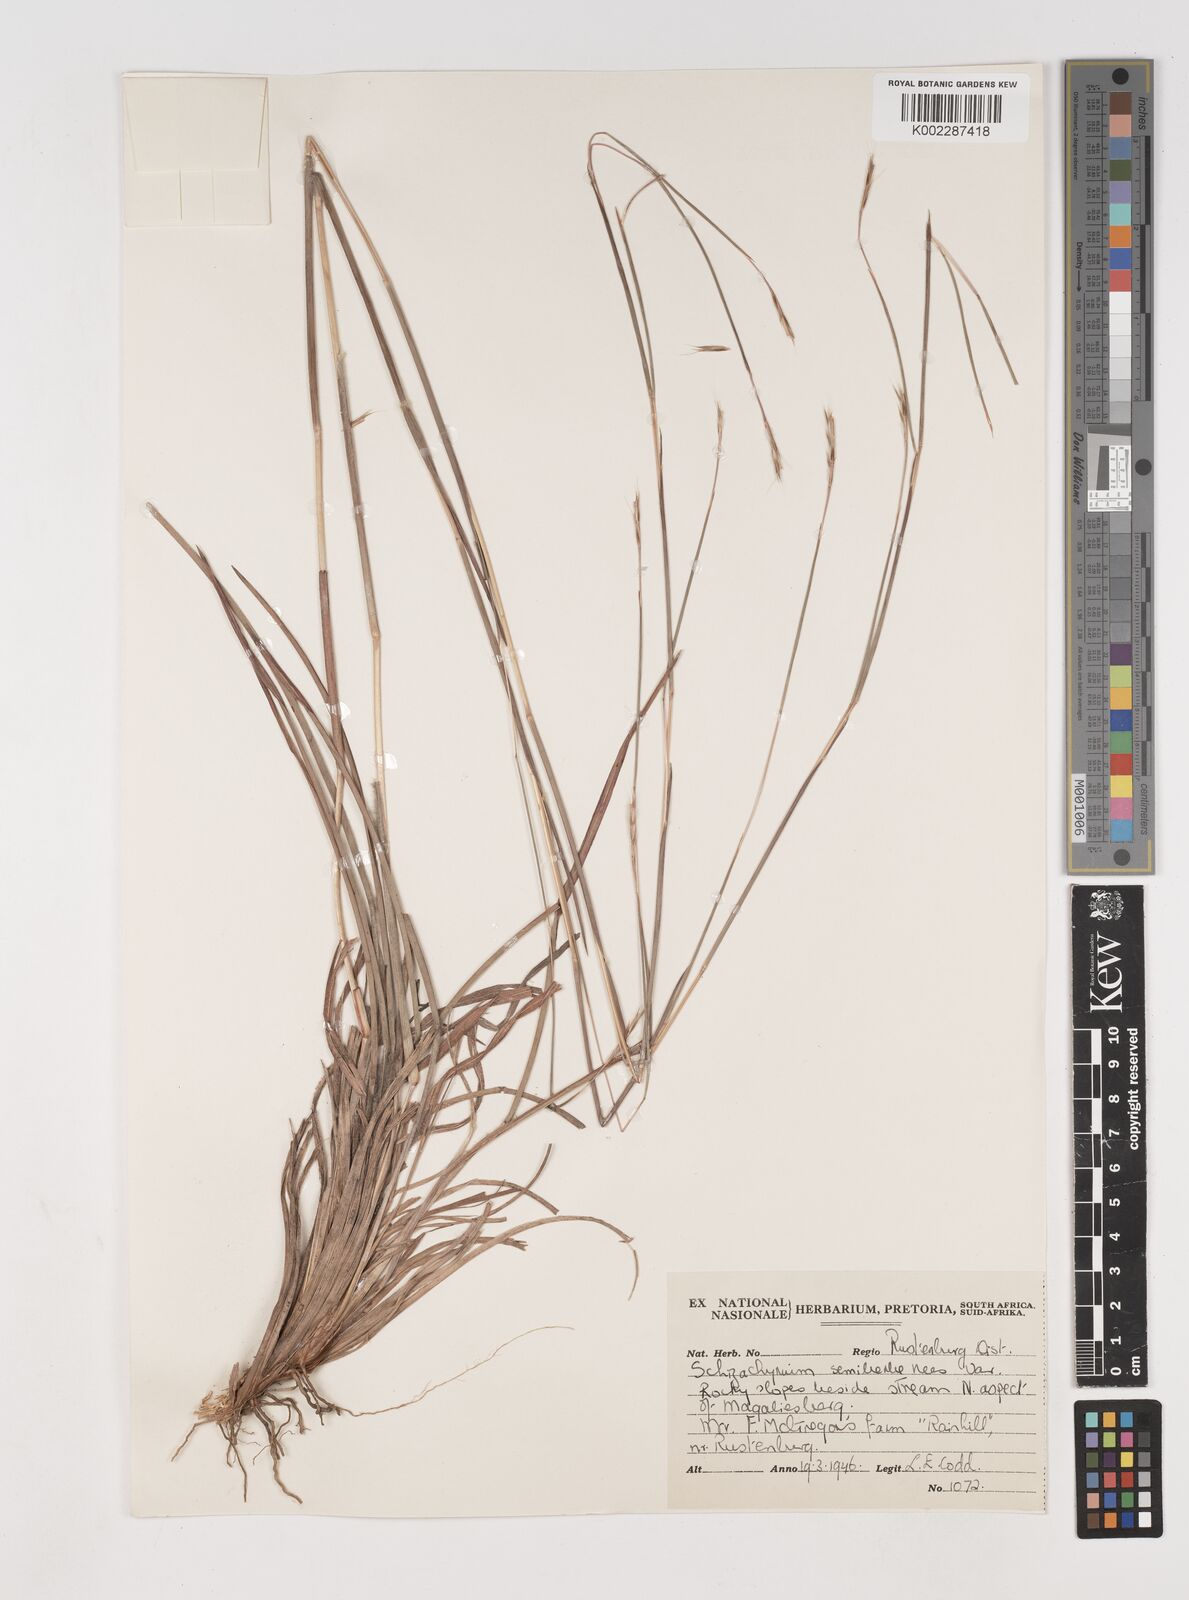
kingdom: Plantae
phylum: Tracheophyta
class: Liliopsida
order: Poales
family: Poaceae
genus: Schizachyrium
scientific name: Schizachyrium sanguineum
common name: Crimson bluestem
